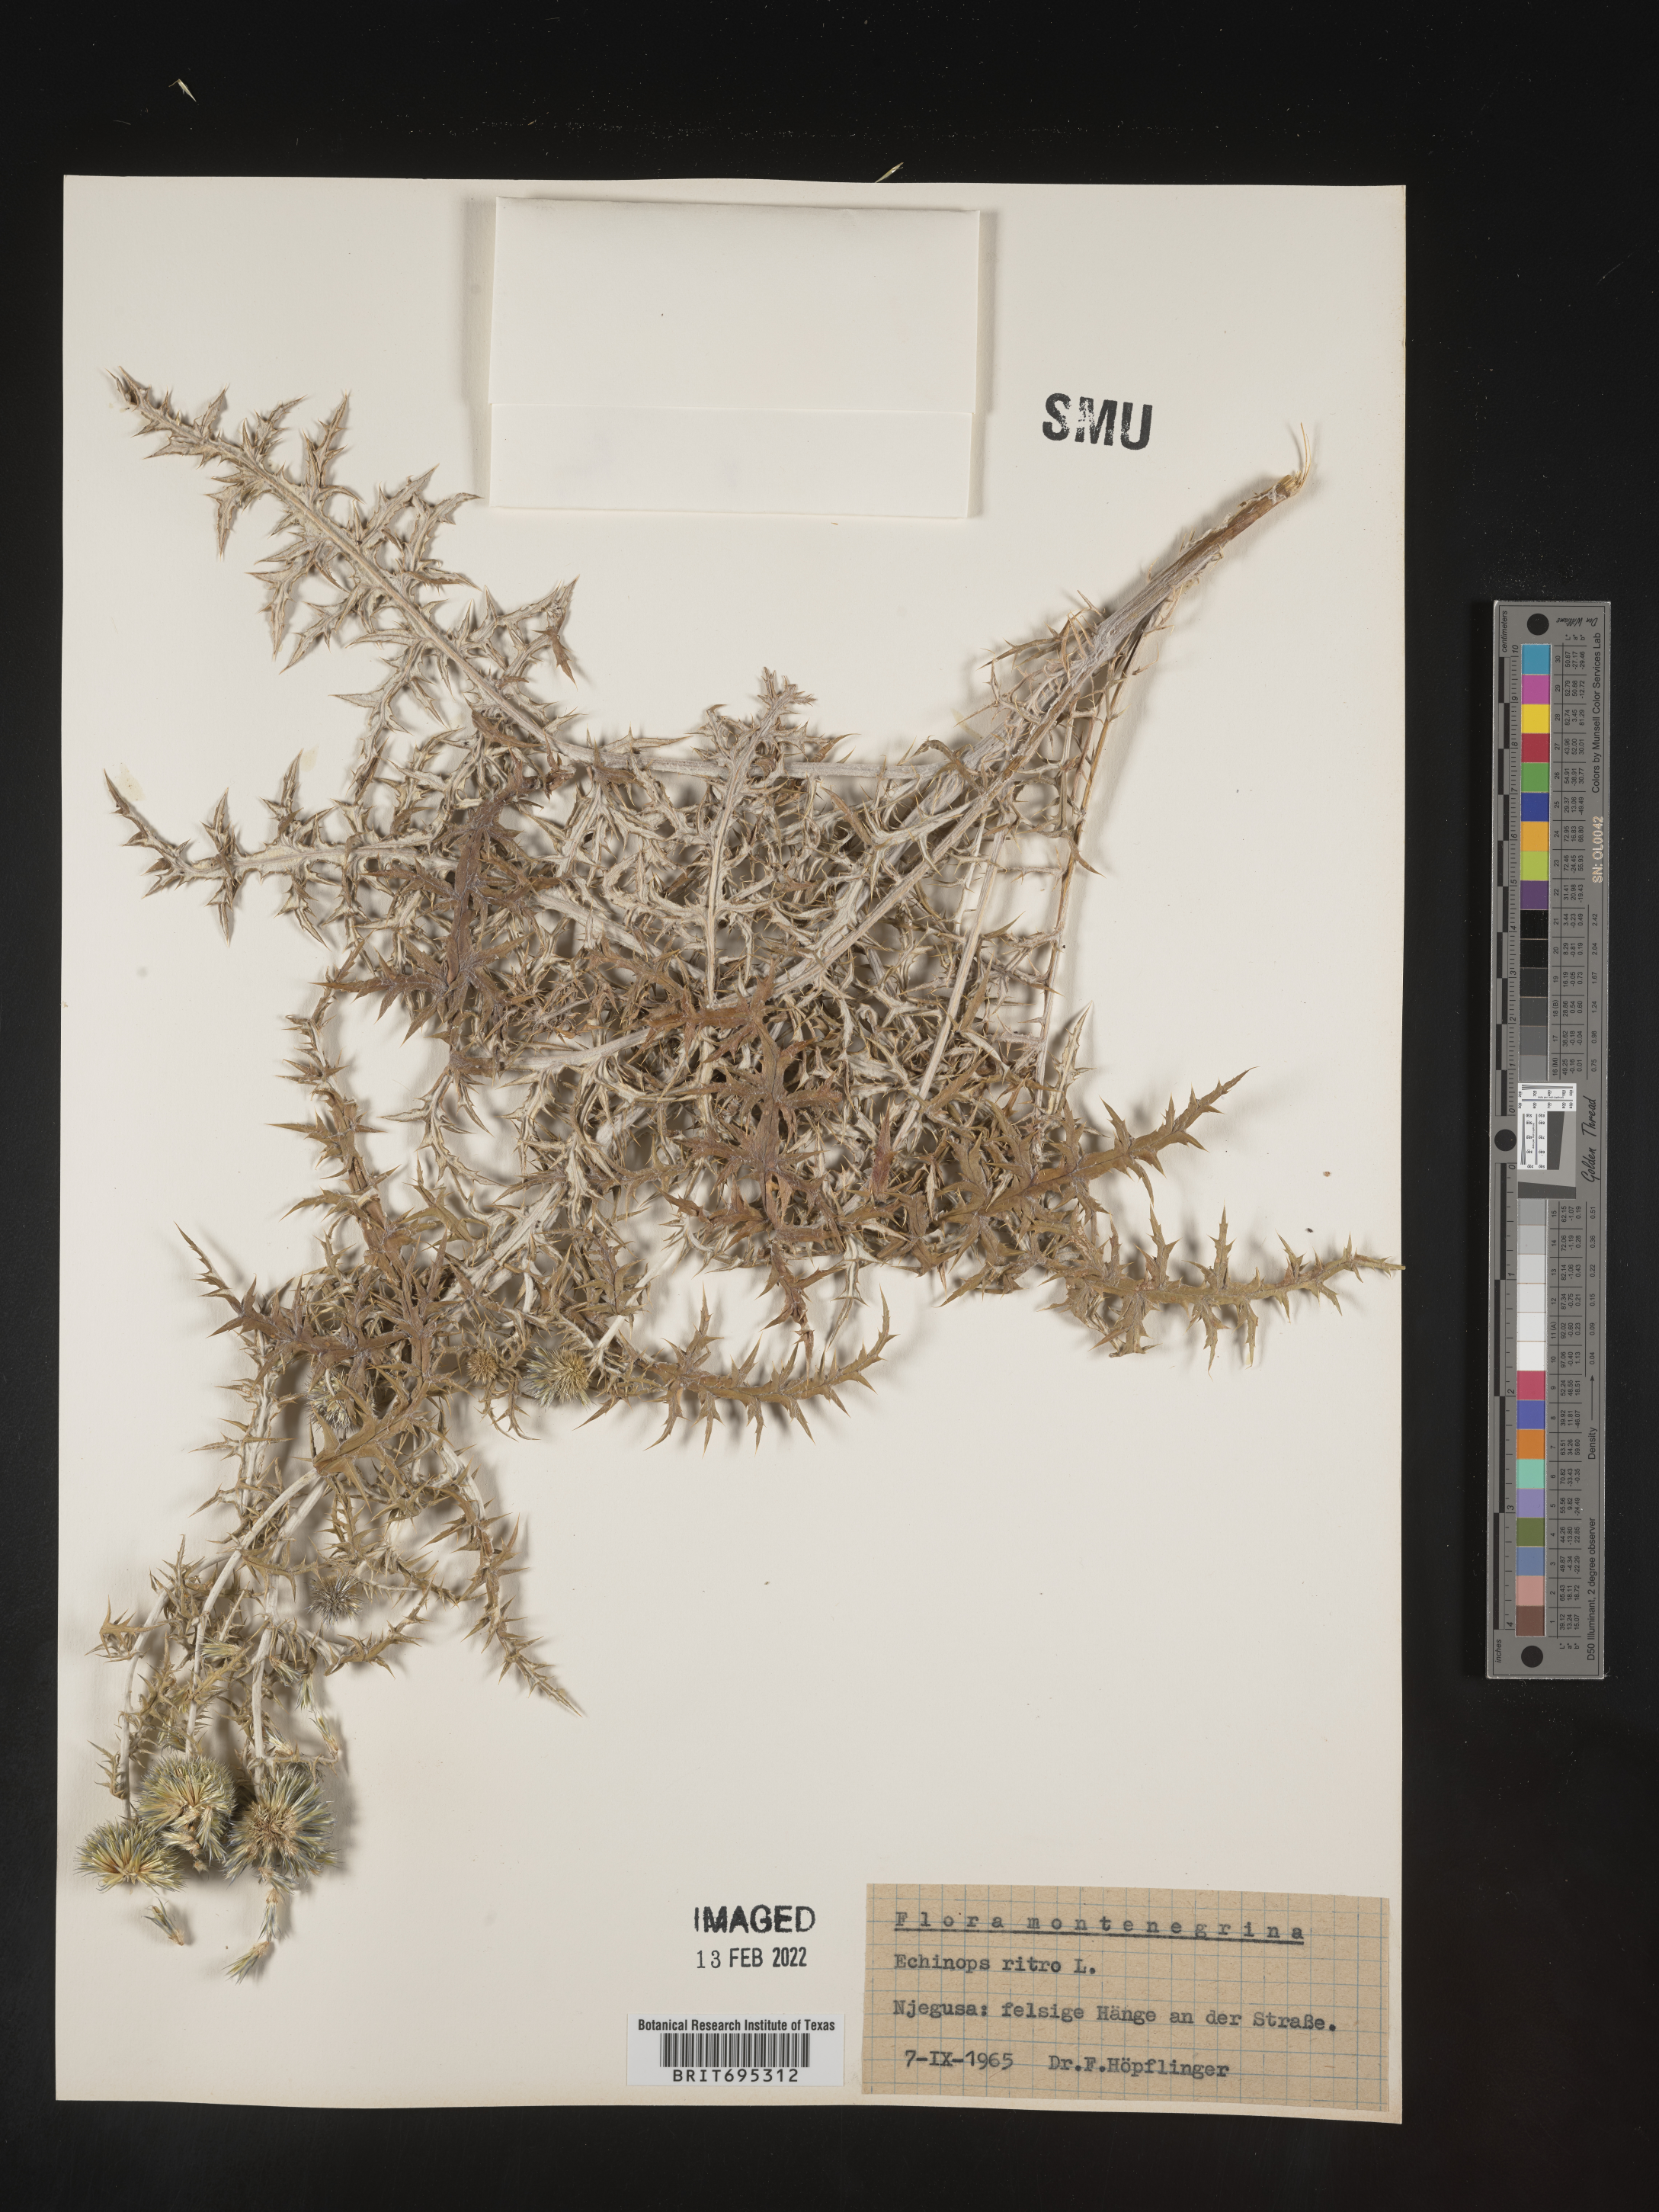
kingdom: Plantae
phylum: Tracheophyta
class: Magnoliopsida
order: Asterales
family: Asteraceae
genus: Echinops
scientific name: Echinops
